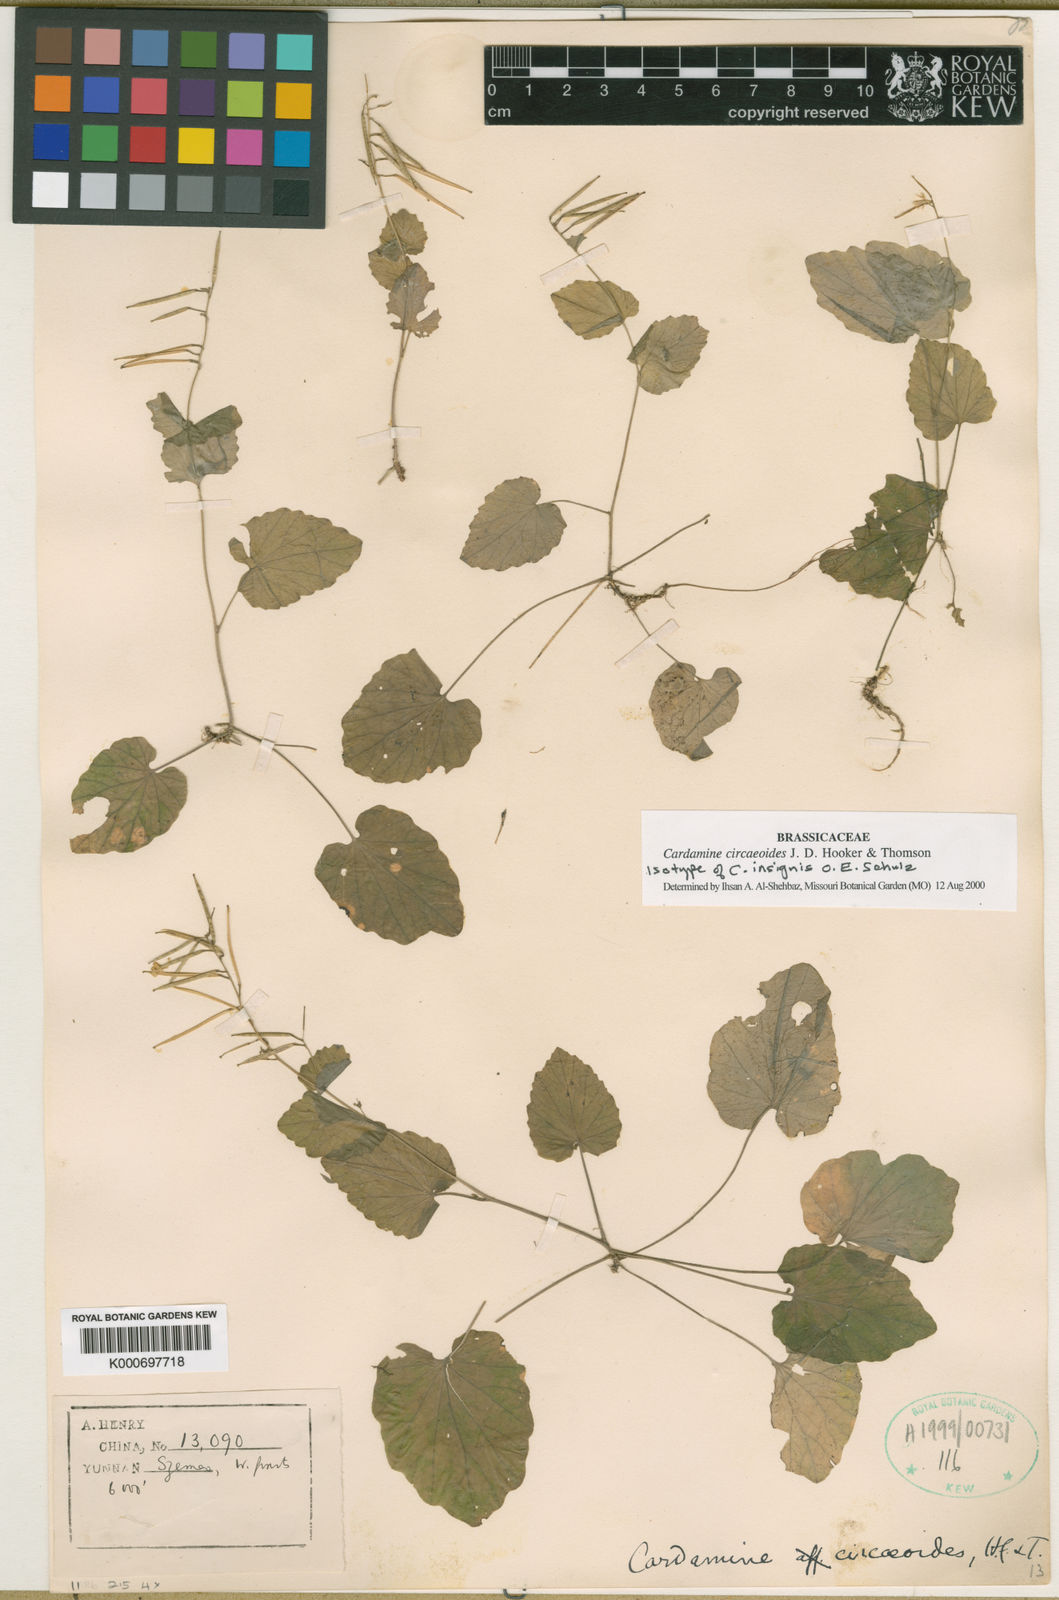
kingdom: Plantae
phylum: Tracheophyta
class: Magnoliopsida
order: Brassicales
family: Brassicaceae
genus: Cardamine
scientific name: Cardamine circaeoides
